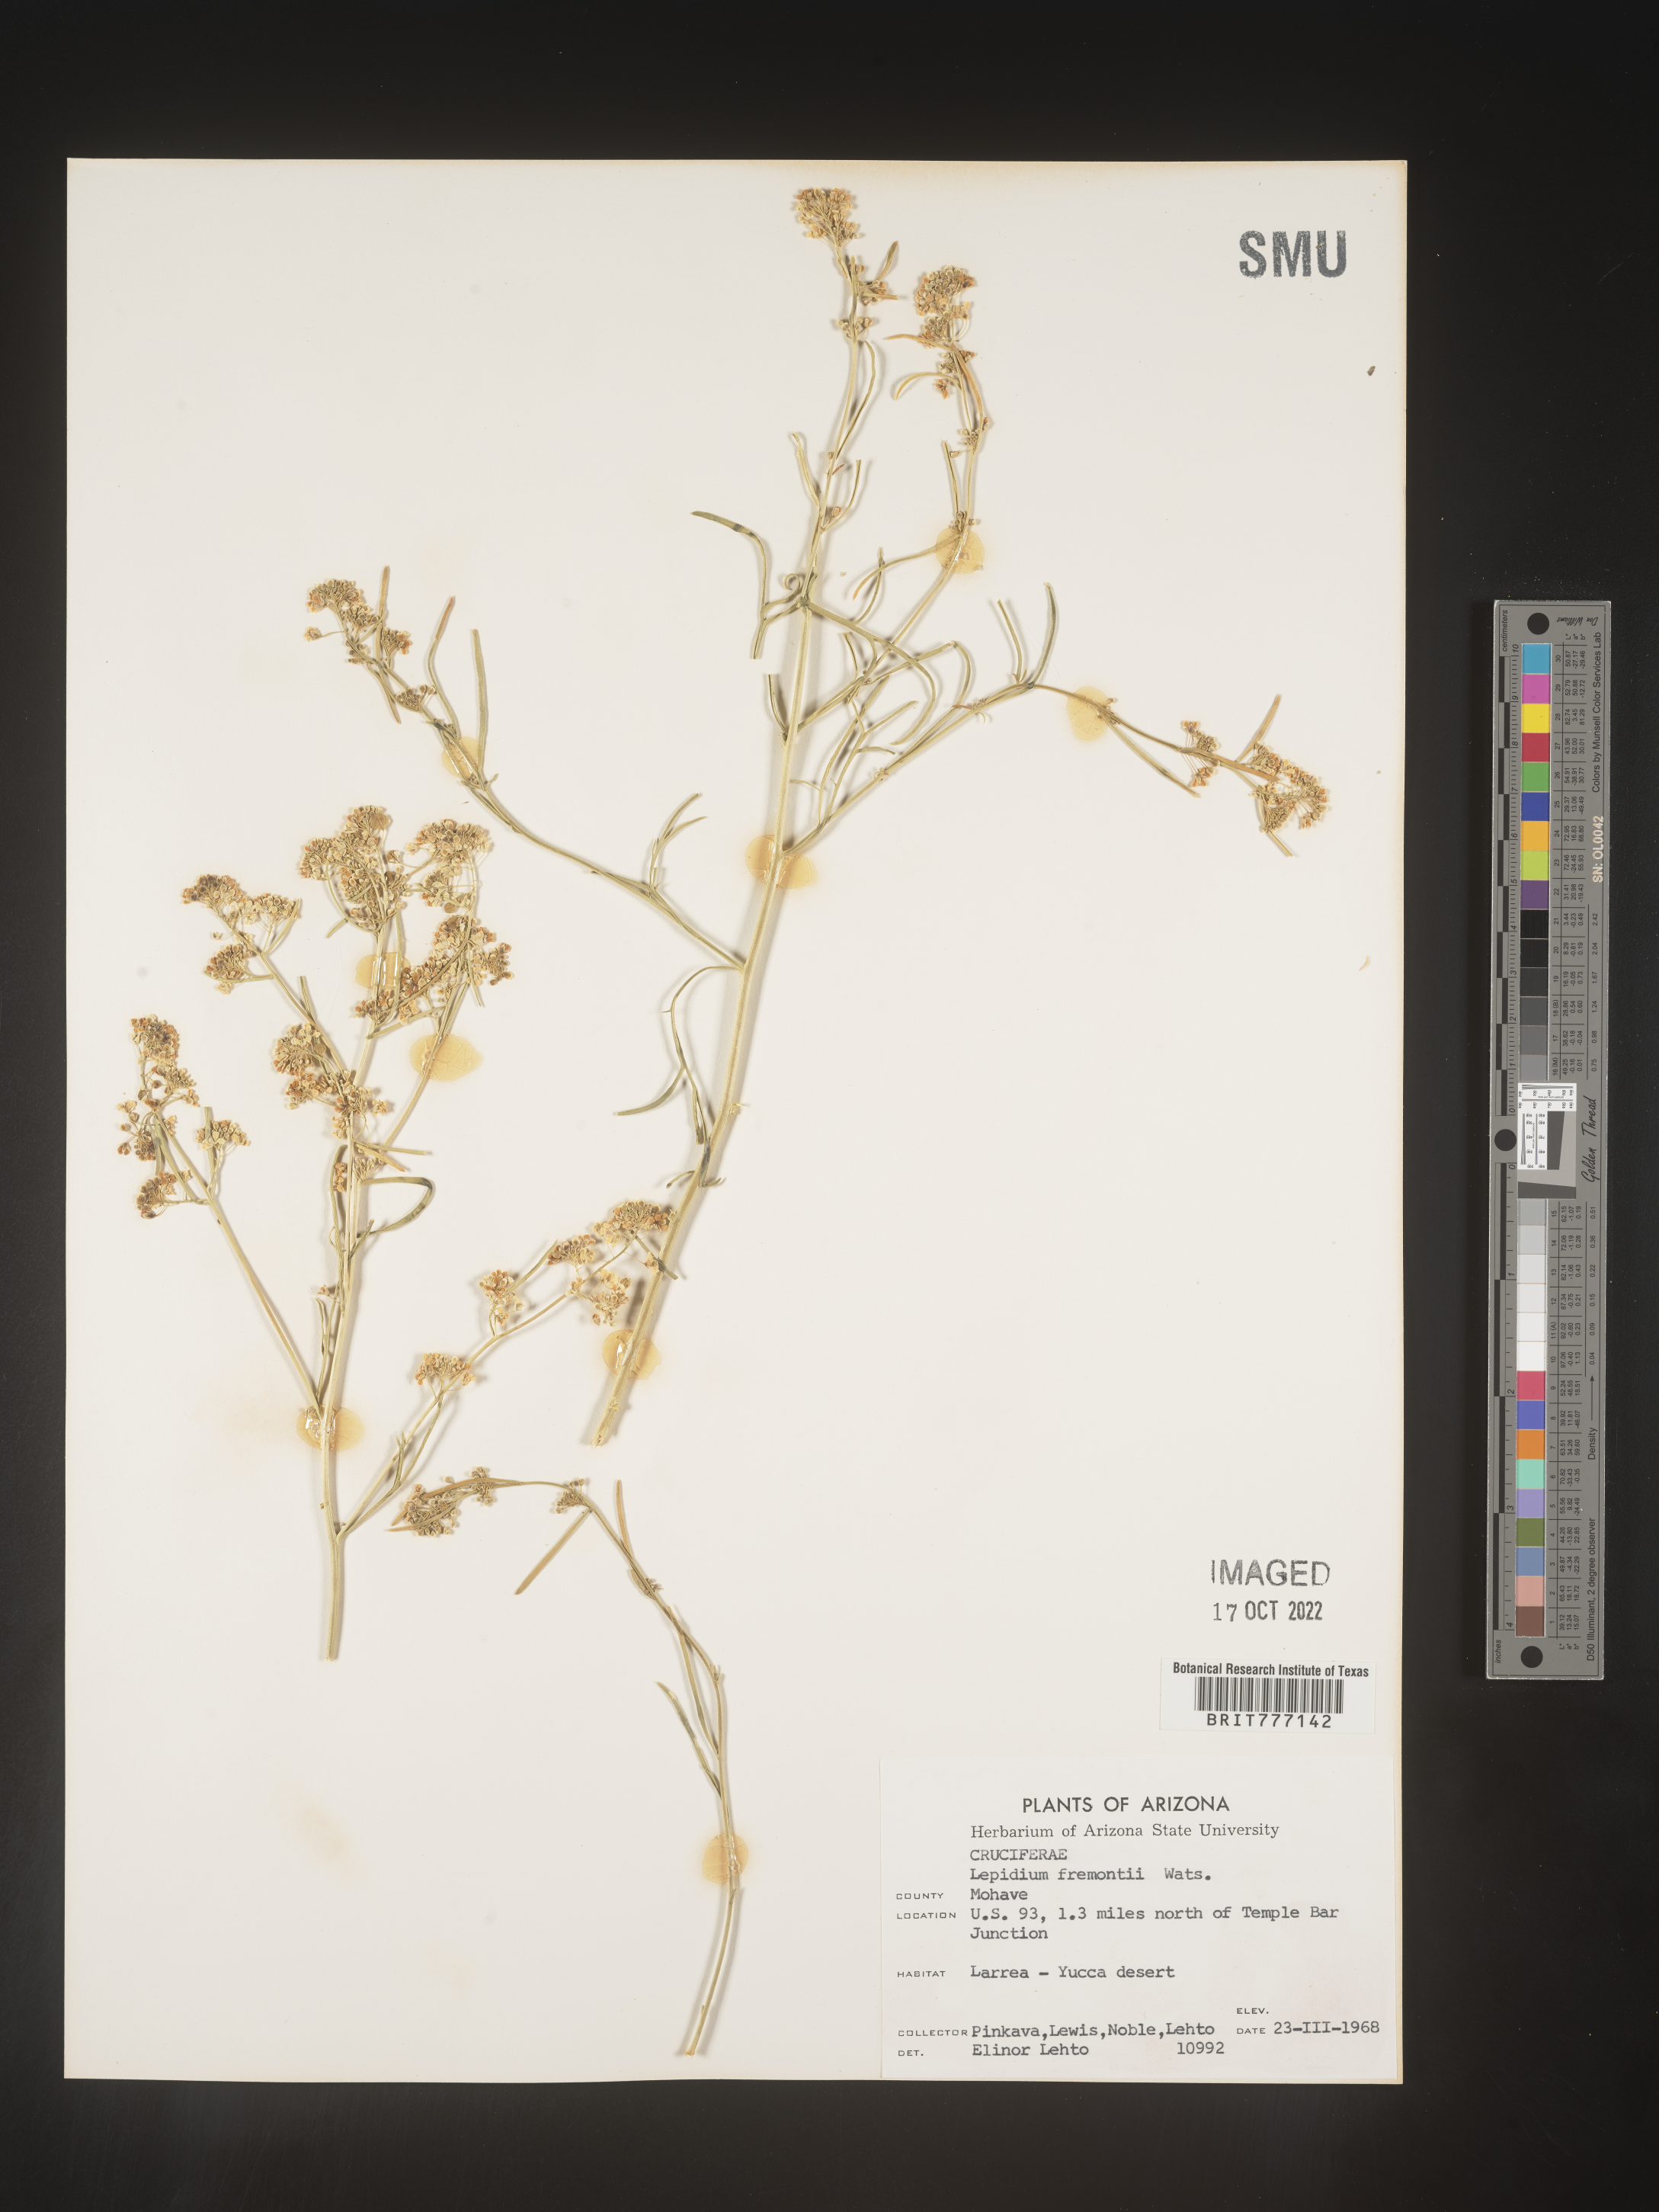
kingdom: Plantae
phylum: Tracheophyta
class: Magnoliopsida
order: Brassicales
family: Brassicaceae
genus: Lepidium
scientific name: Lepidium fremontii
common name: Fremont's pepperwort
